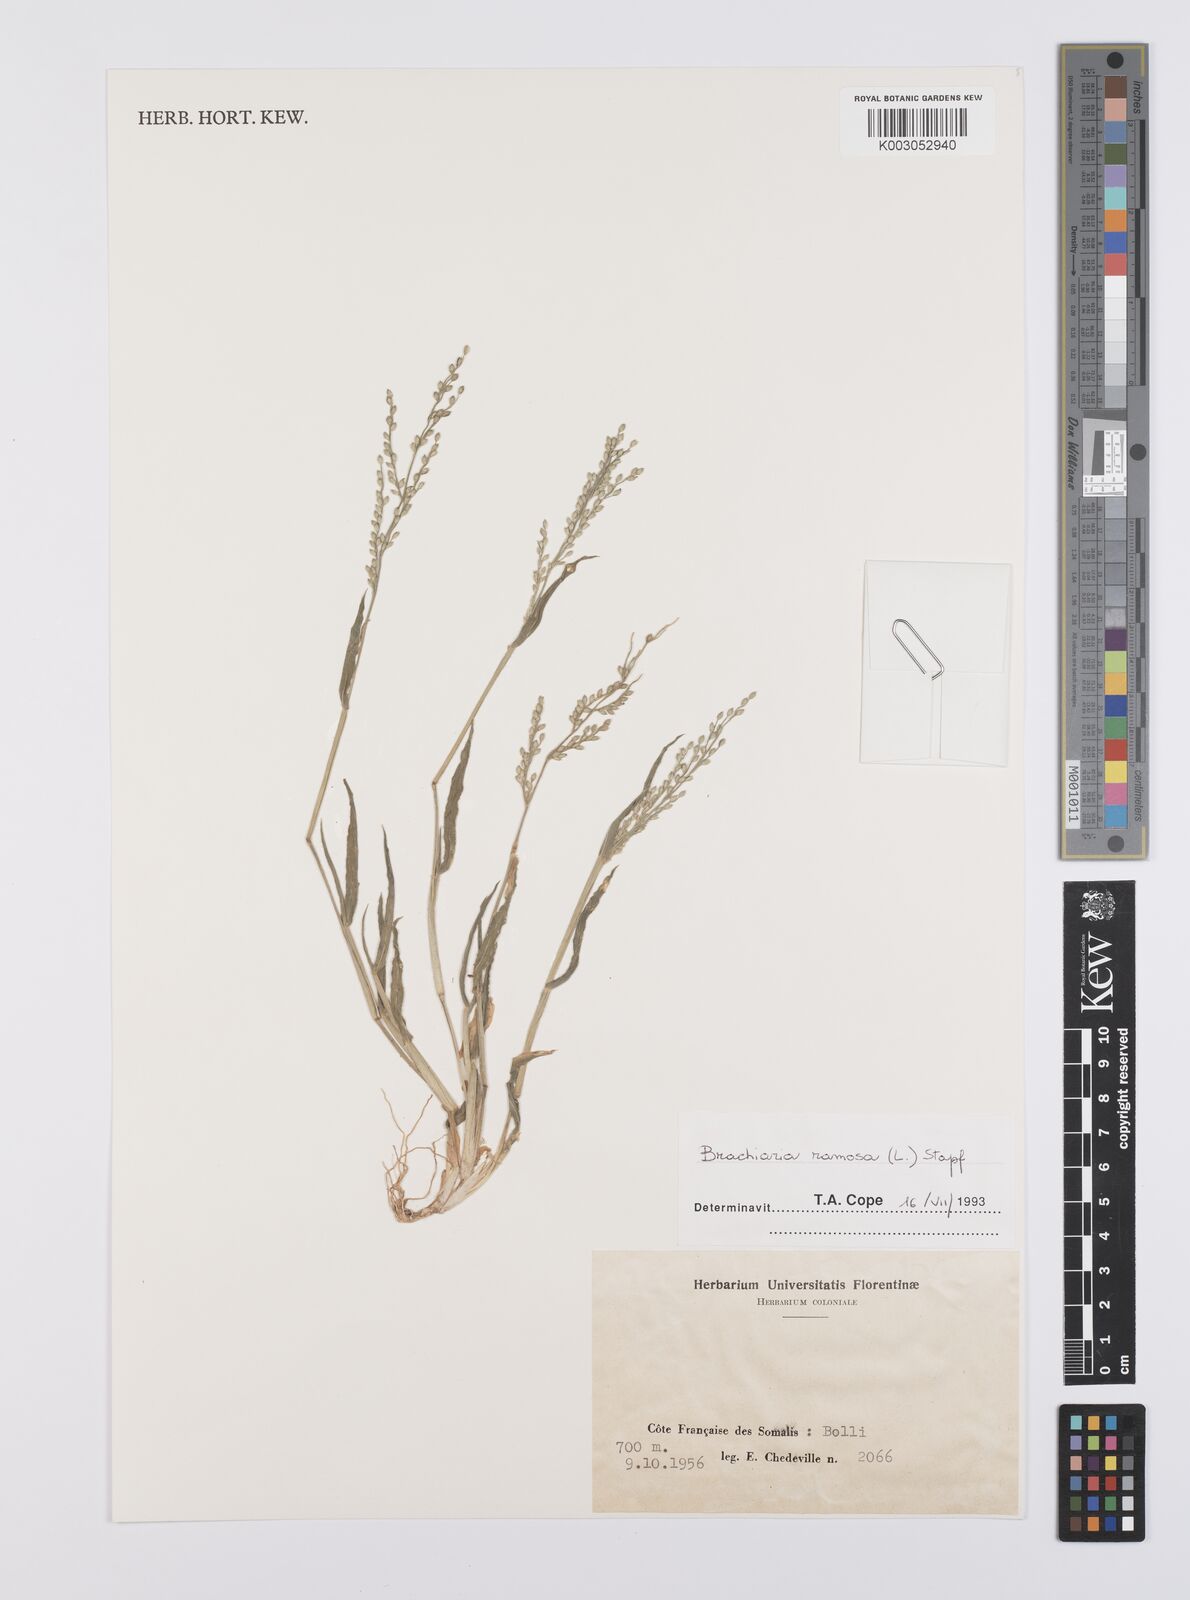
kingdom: Plantae
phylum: Tracheophyta
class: Liliopsida
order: Poales
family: Poaceae
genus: Urochloa
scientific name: Urochloa ramosa
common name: Browntop millet
